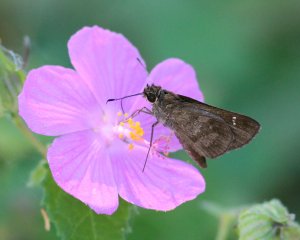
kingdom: Animalia
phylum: Arthropoda
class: Insecta
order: Lepidoptera
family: Hesperiidae
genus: Cymaenes
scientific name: Cymaenes odilia
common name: Fawn-spotted Skipper
